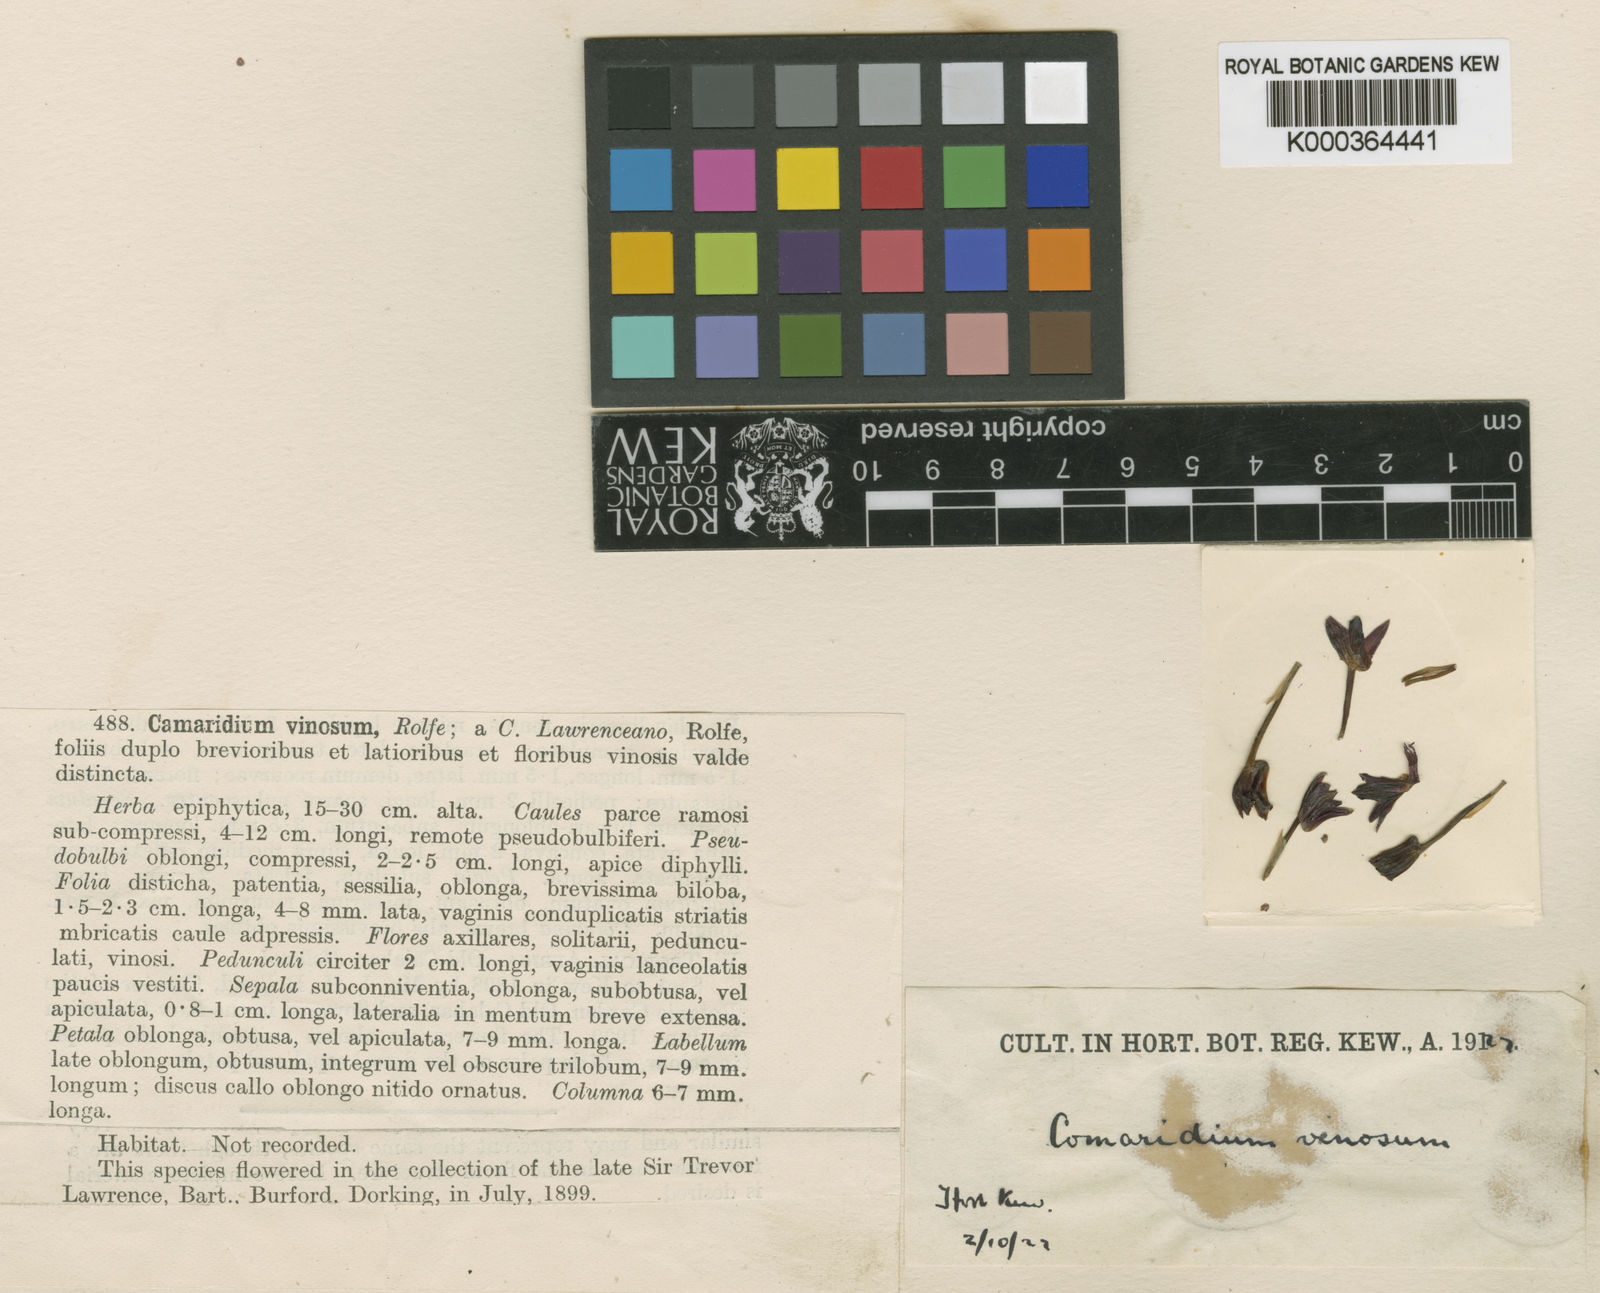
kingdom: Plantae
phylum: Tracheophyta
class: Liliopsida
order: Asparagales
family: Orchidaceae
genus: Maxillaria
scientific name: Maxillaria umbratilis
